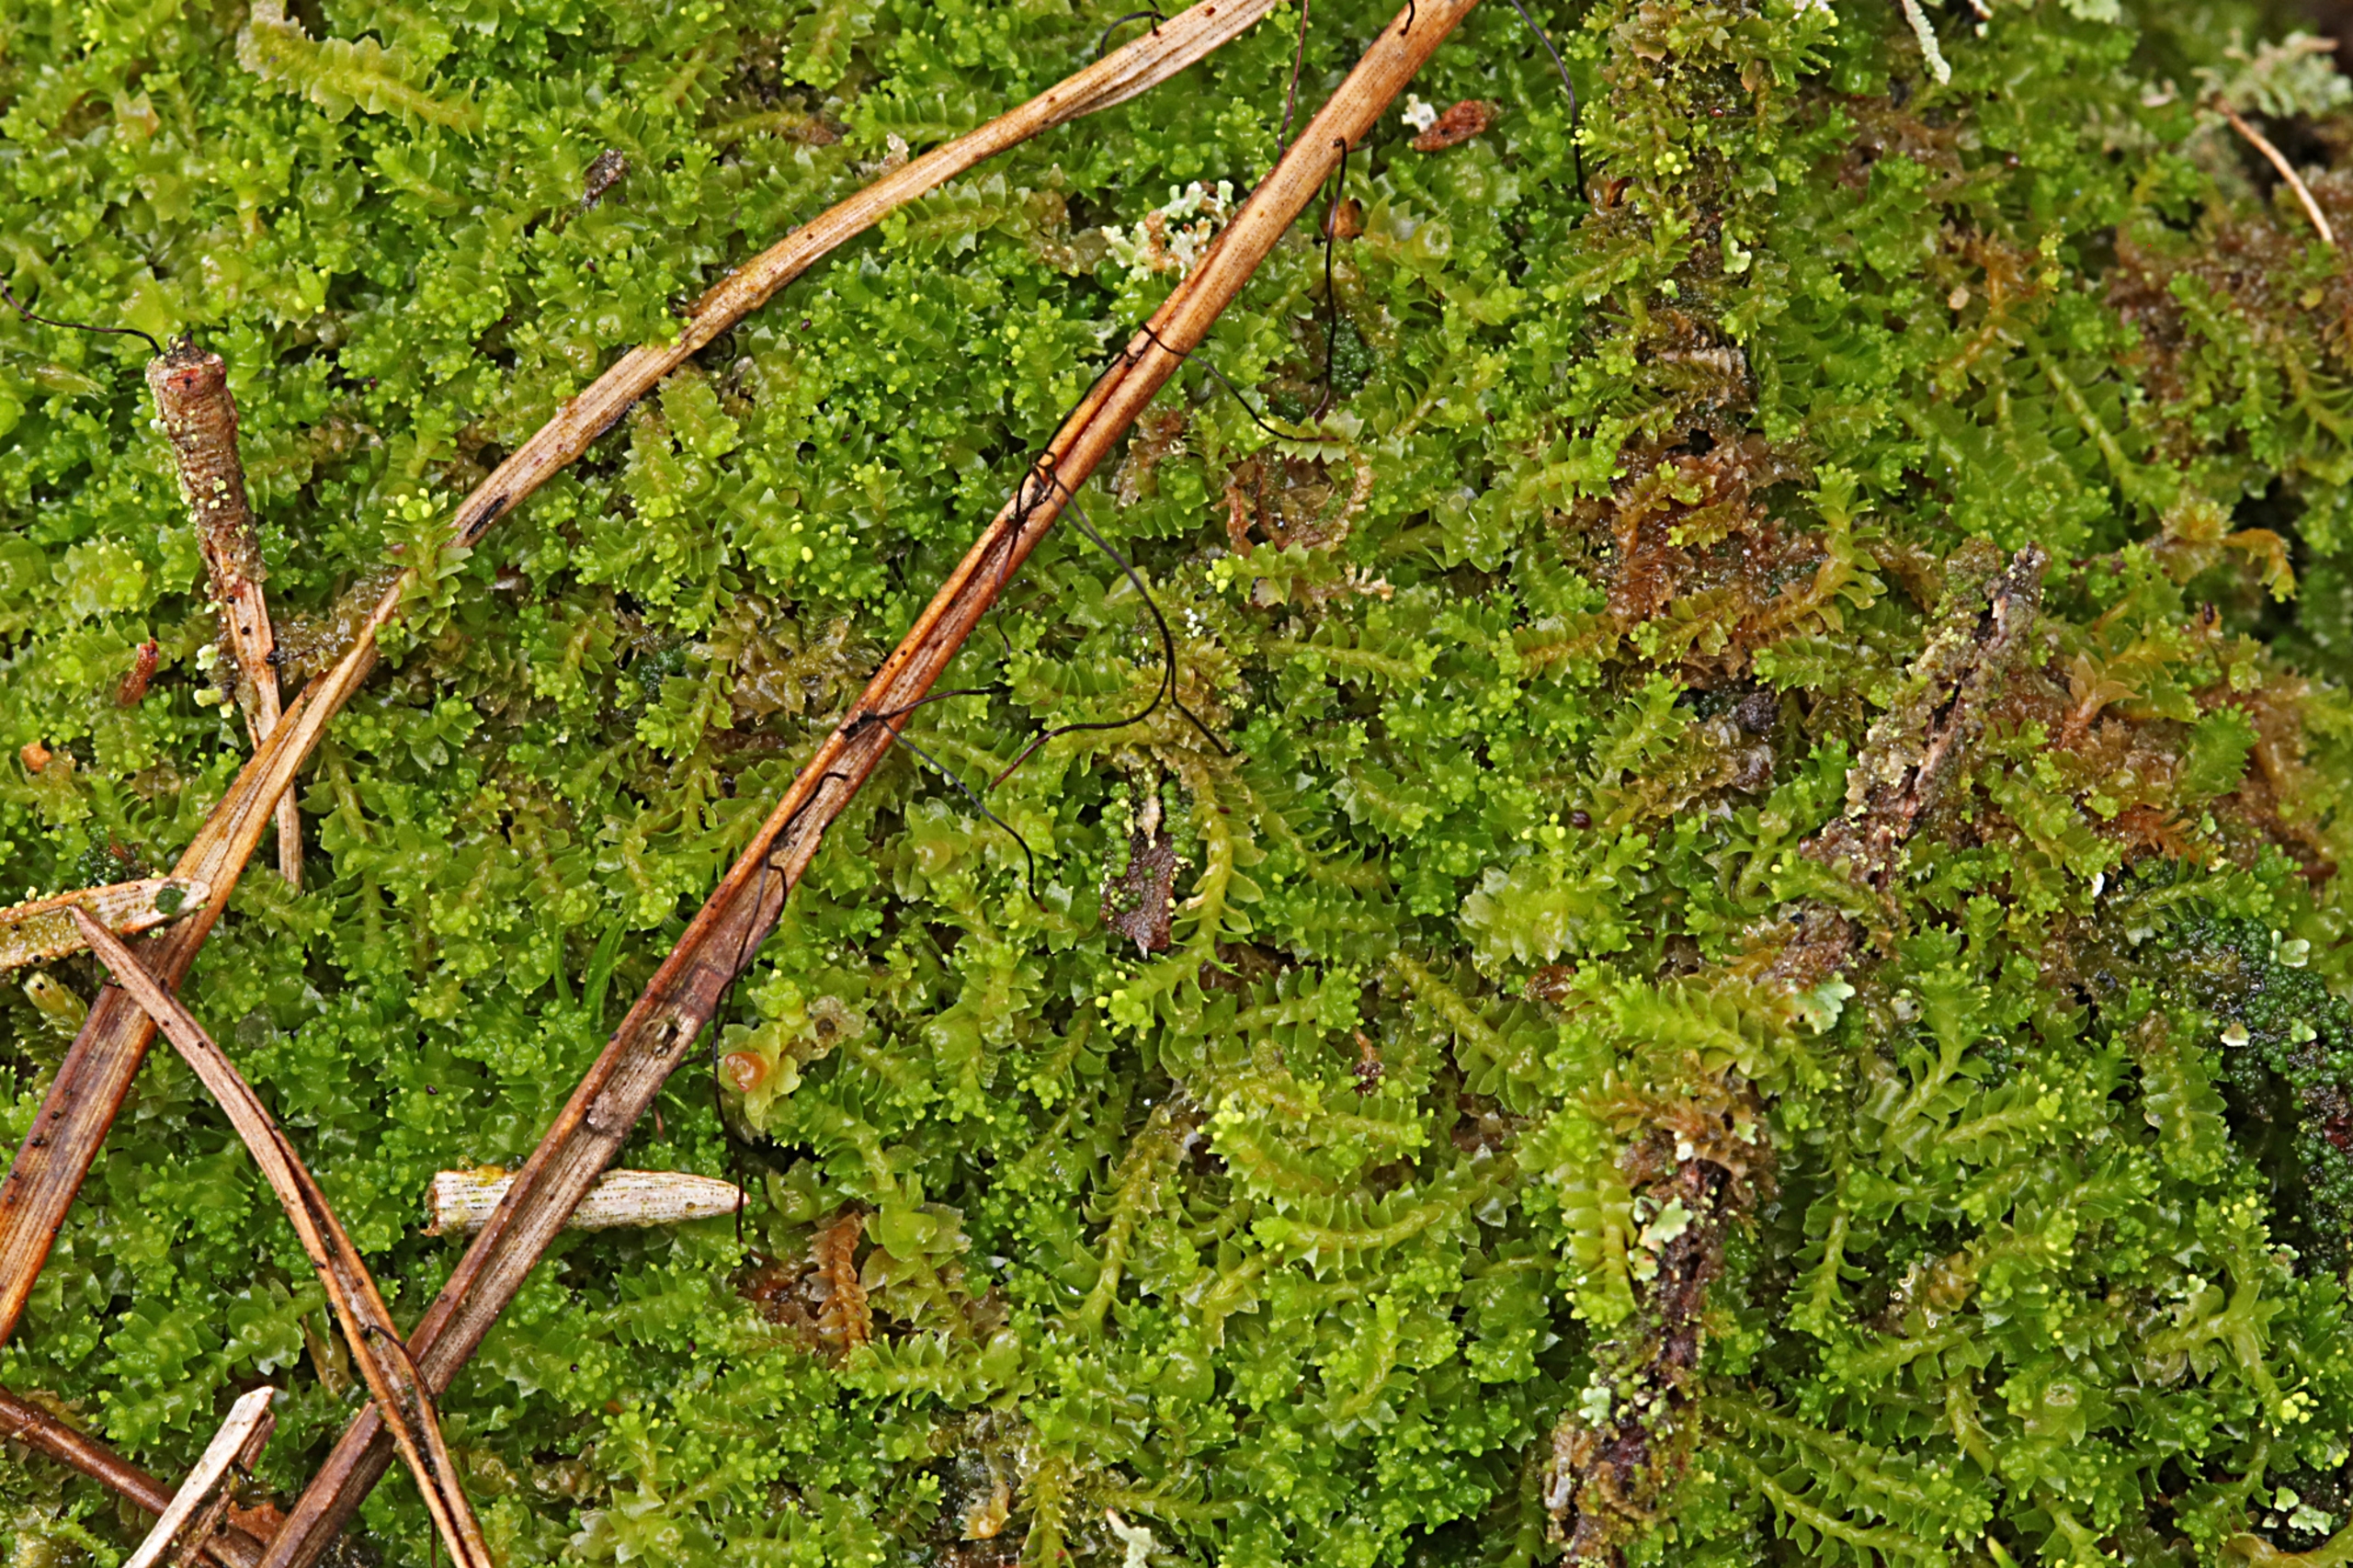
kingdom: Plantae
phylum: Marchantiophyta
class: Jungermanniopsida
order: Jungermanniales
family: Lophoziaceae
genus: Lophozia
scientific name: Lophozia ventricosa
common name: Grønkornet foldbæger
